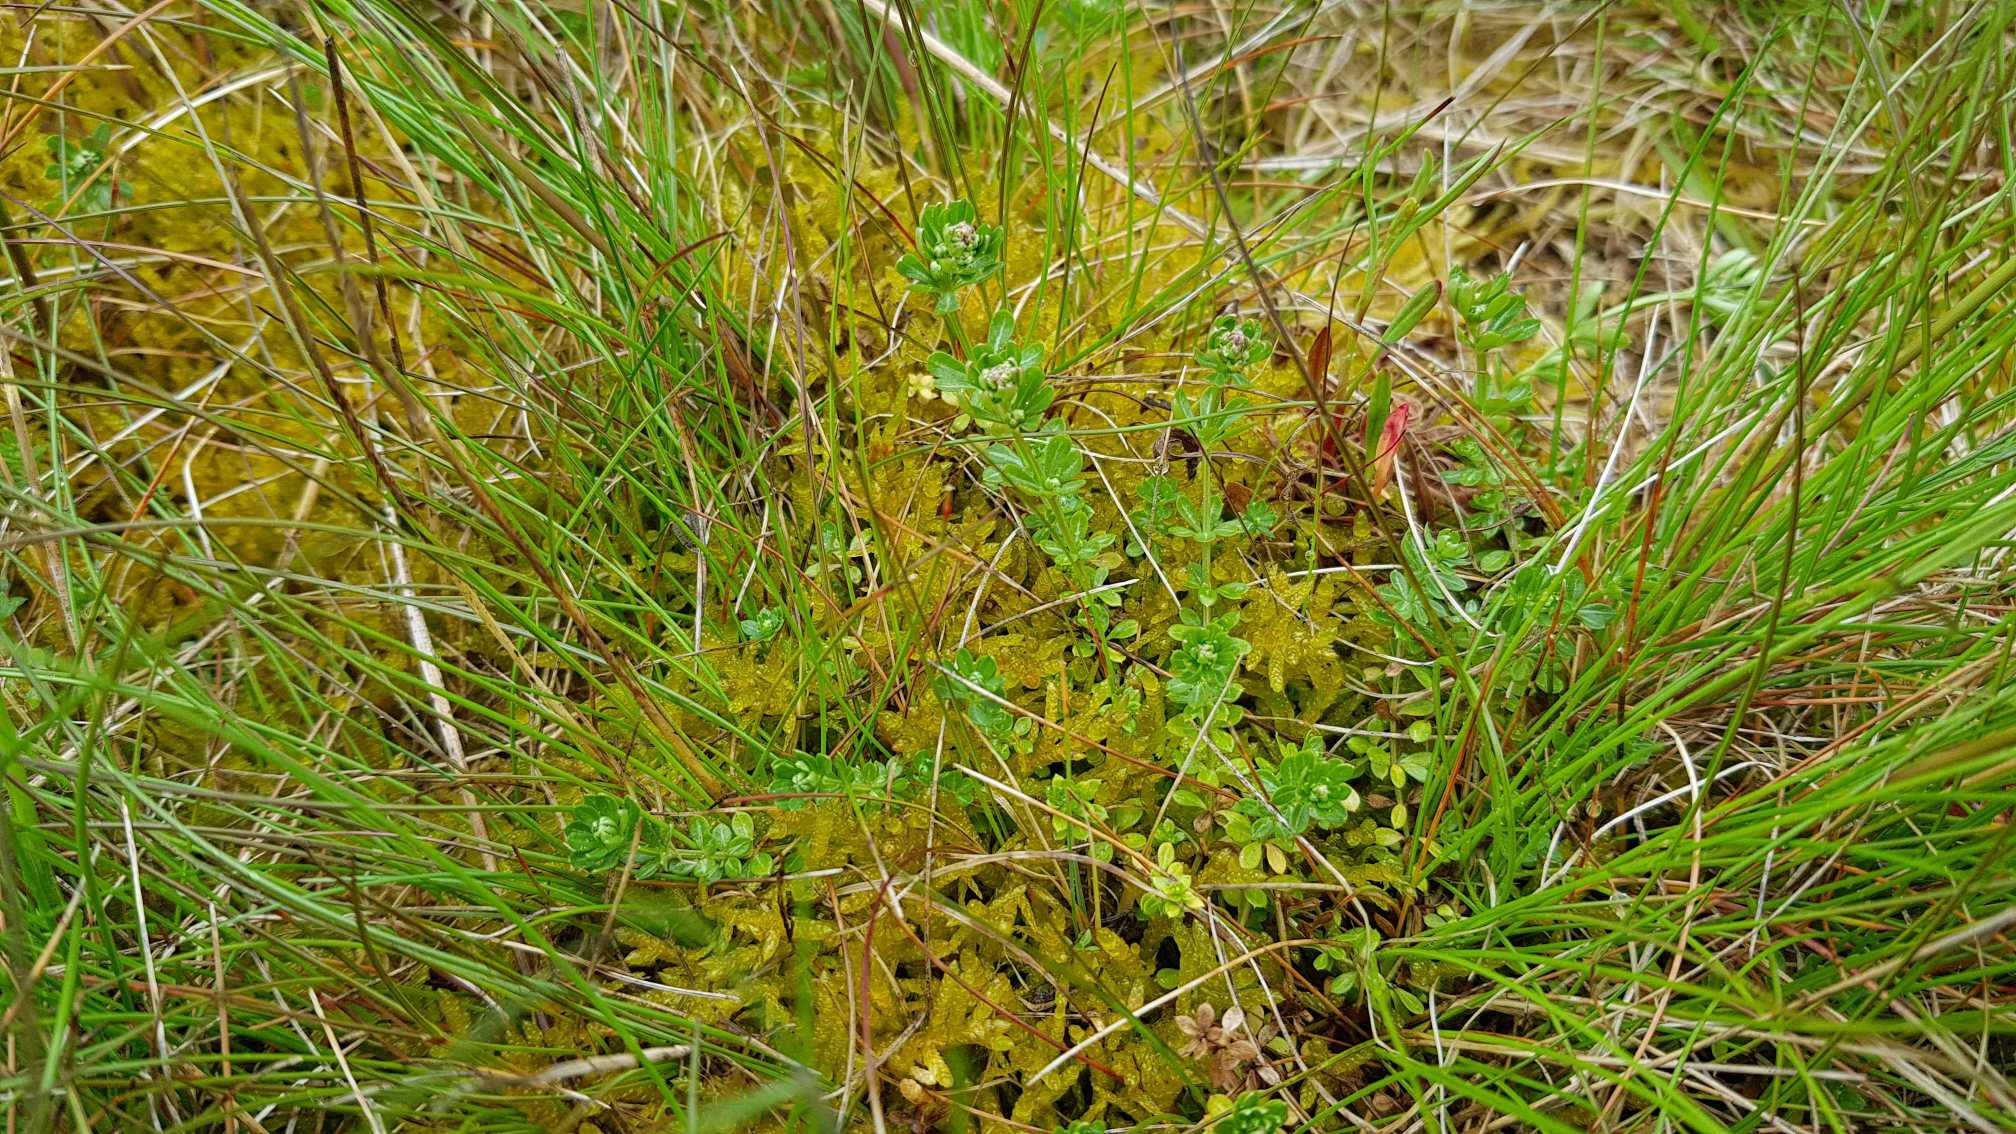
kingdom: Plantae
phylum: Tracheophyta
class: Magnoliopsida
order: Gentianales
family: Rubiaceae
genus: Galium
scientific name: Galium saxatile
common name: Lyng-snerre
